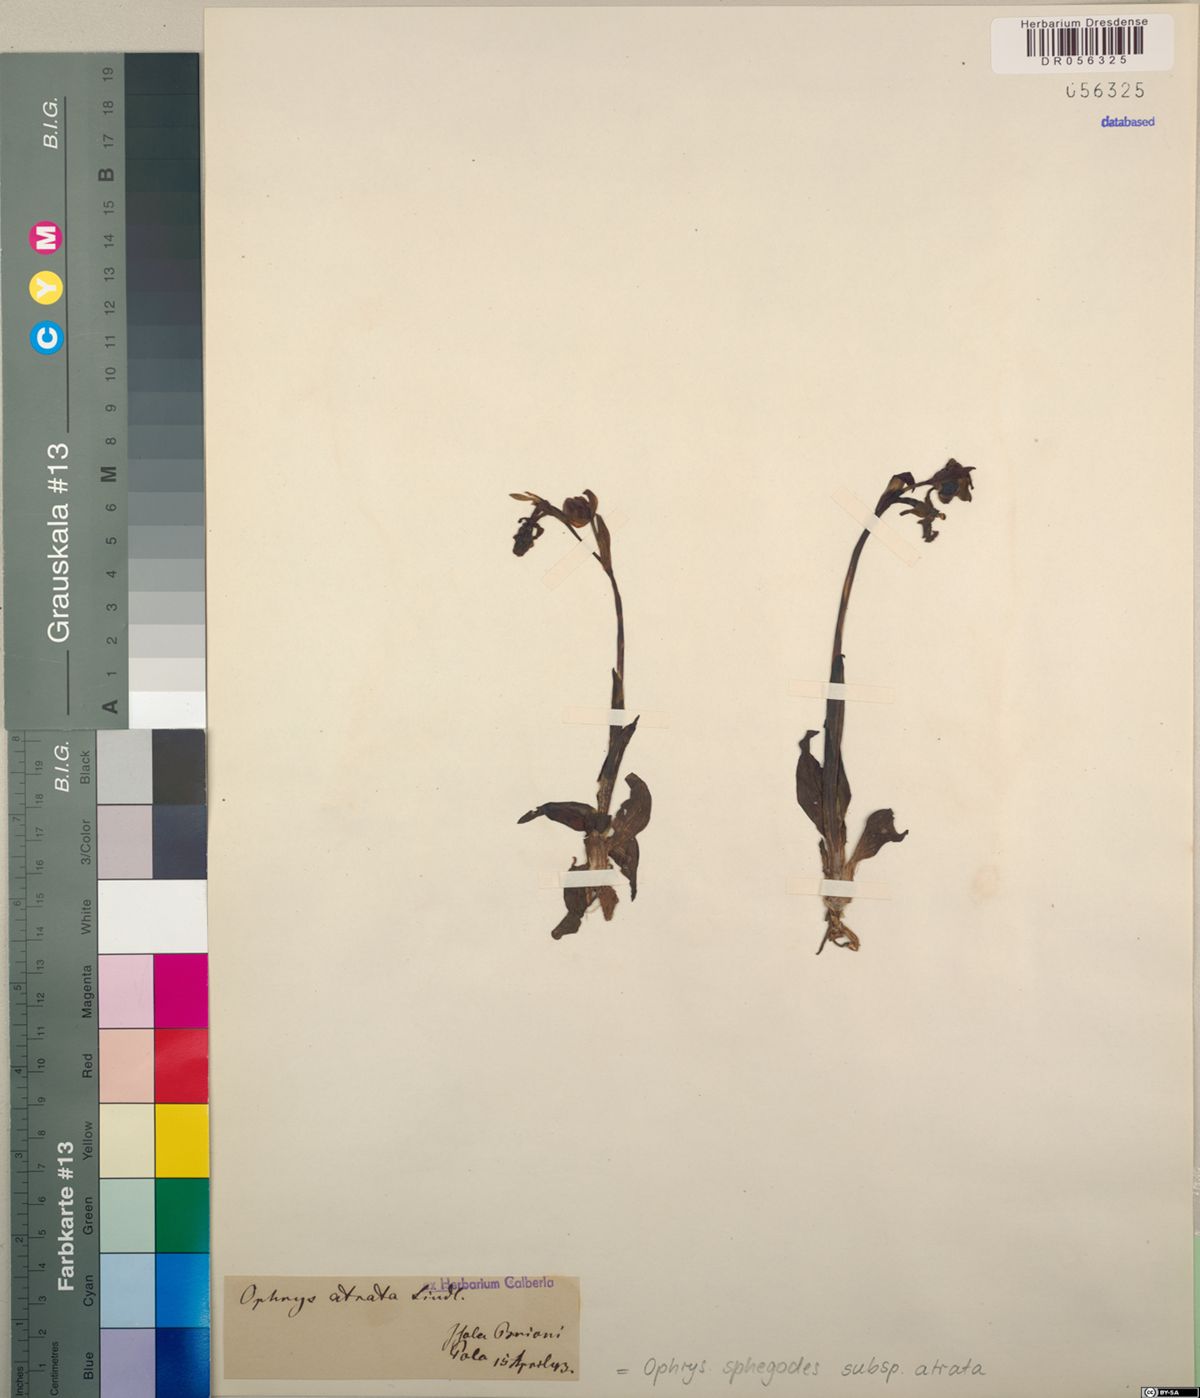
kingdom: Plantae
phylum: Tracheophyta
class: Liliopsida
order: Asparagales
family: Orchidaceae
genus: Ophrys
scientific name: Ophrys sphegodes
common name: Early spider-orchid
